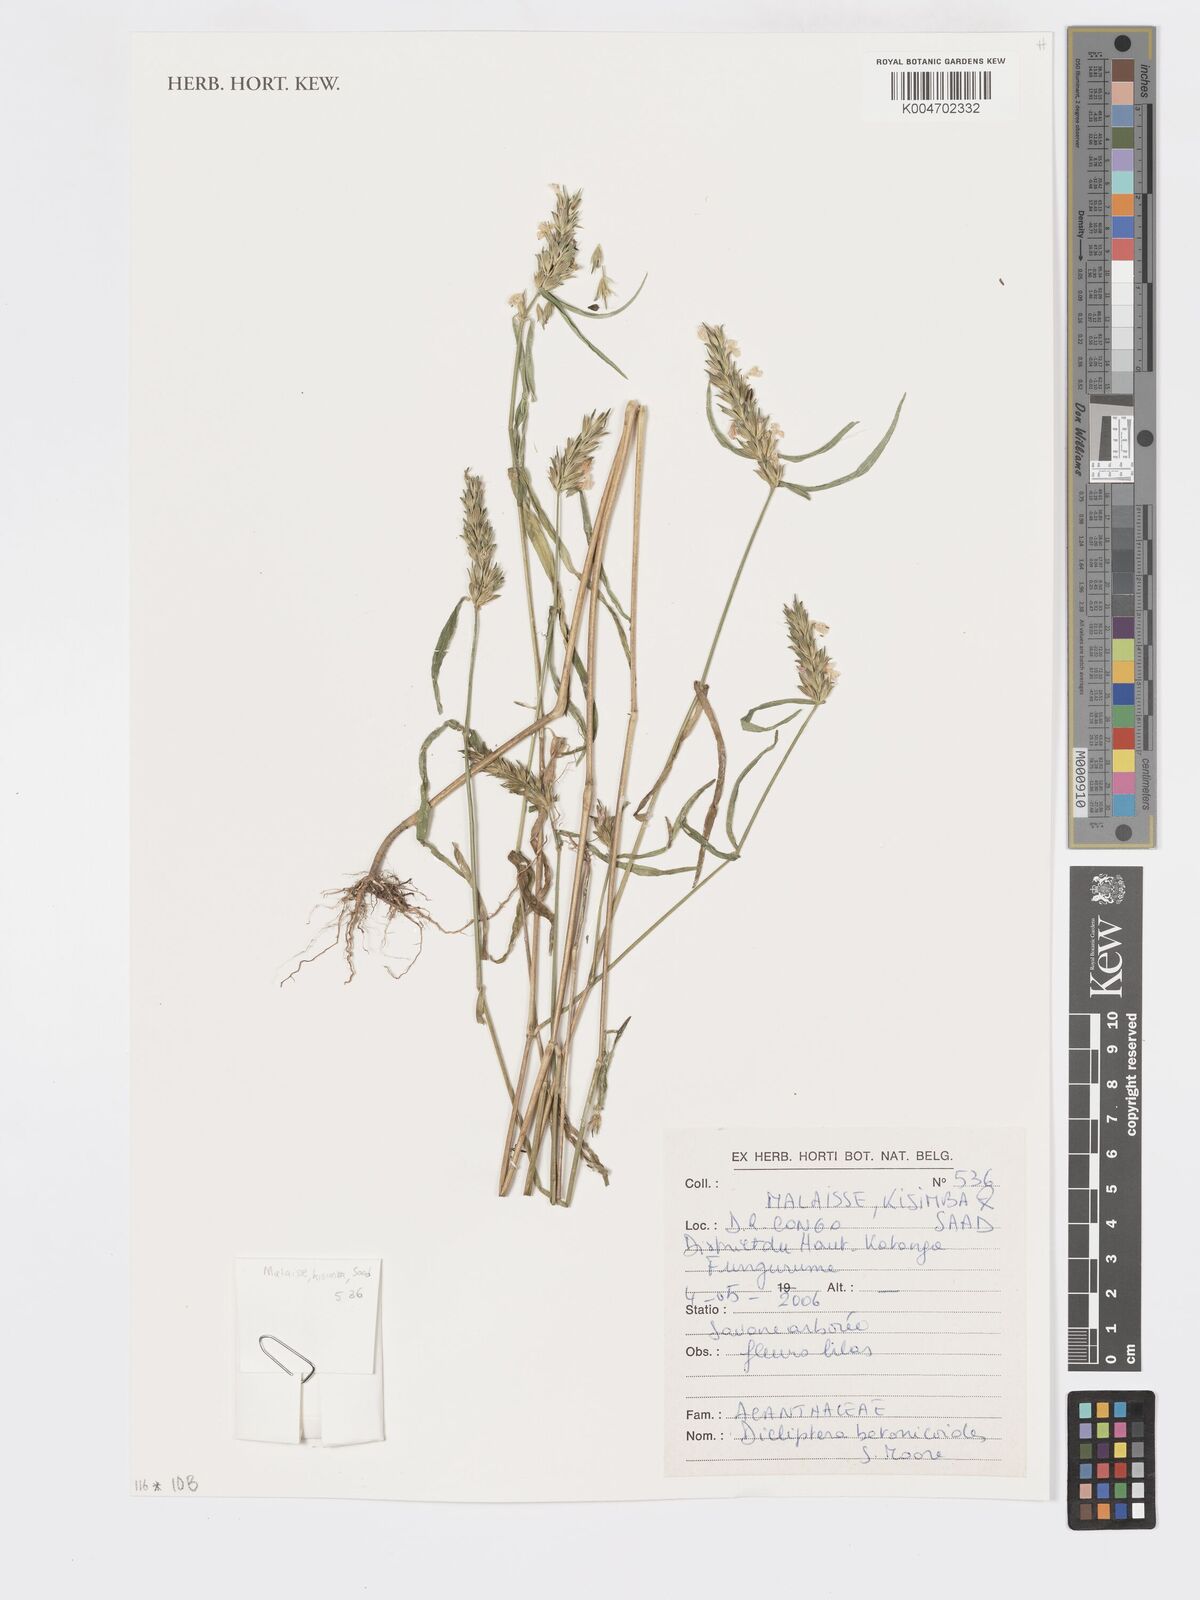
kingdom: Plantae
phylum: Tracheophyta
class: Magnoliopsida
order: Lamiales
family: Acanthaceae
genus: Dicliptera
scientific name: Dicliptera betonicoides
